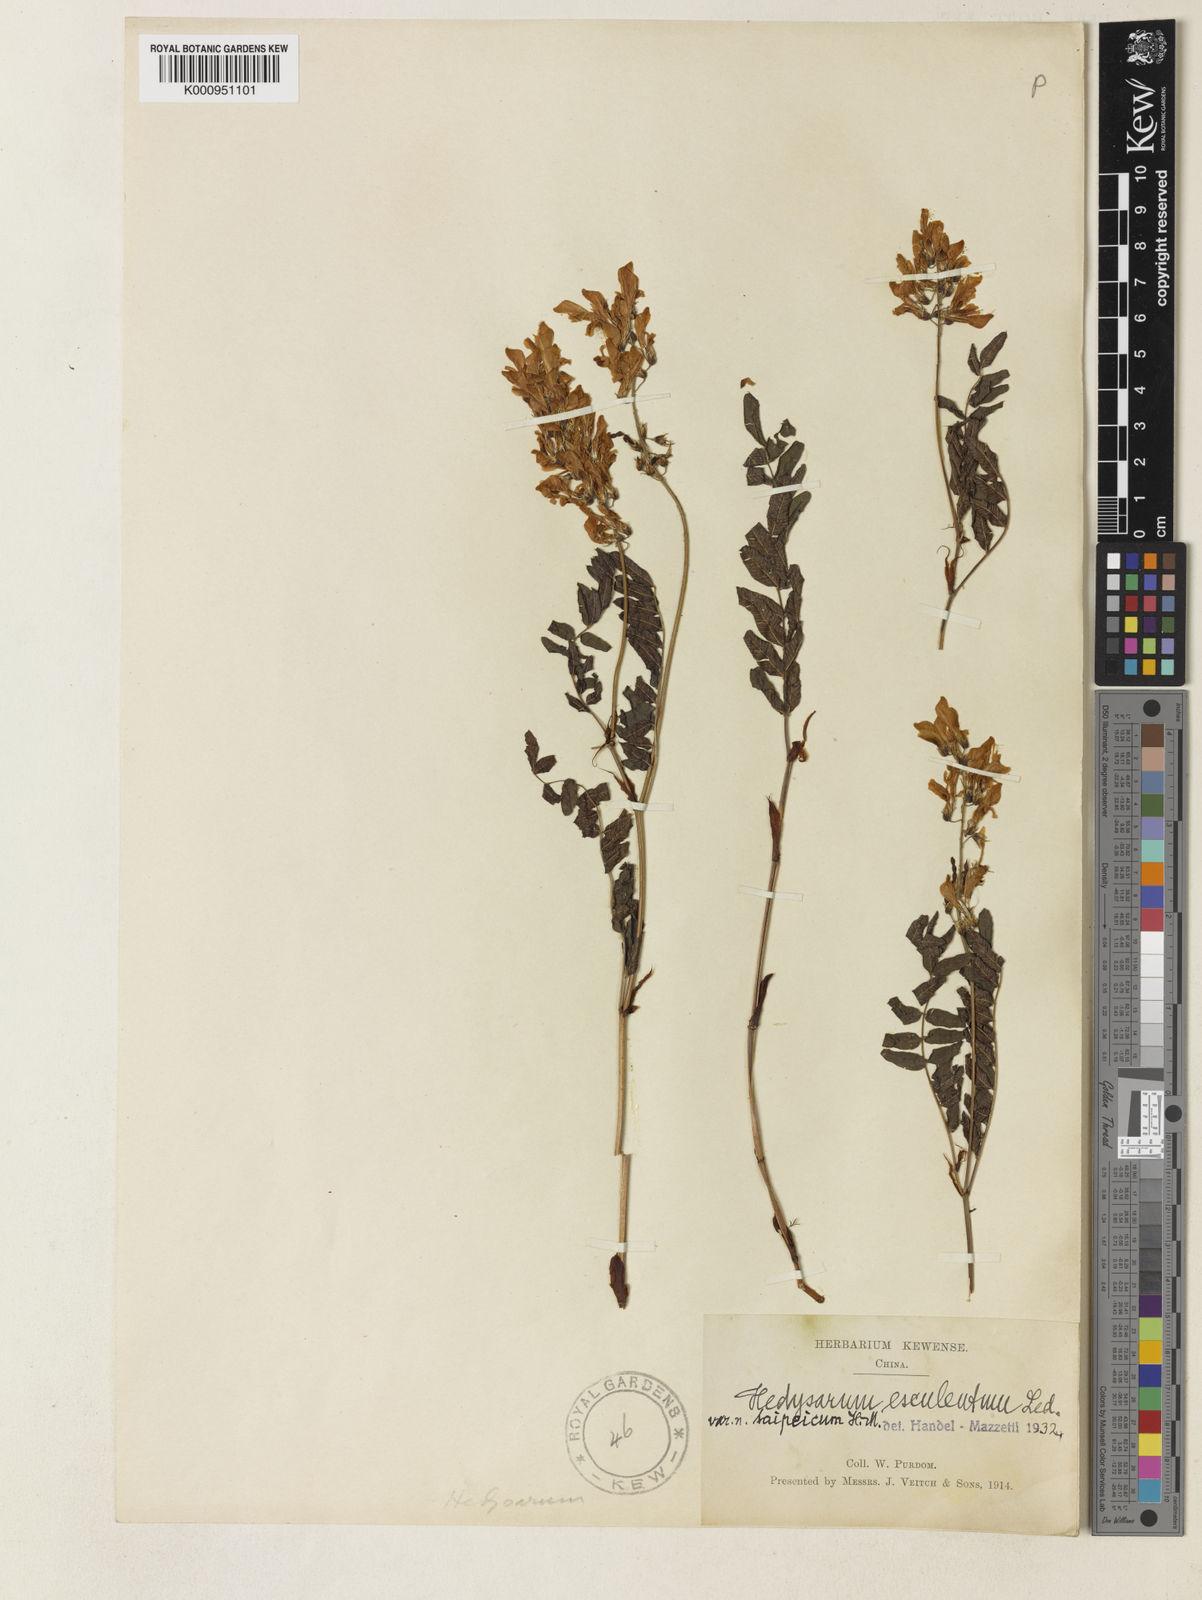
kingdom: Plantae
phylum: Tracheophyta
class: Magnoliopsida
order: Fabales
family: Fabaceae
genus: Hedysarum
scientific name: Hedysarum vicioides
